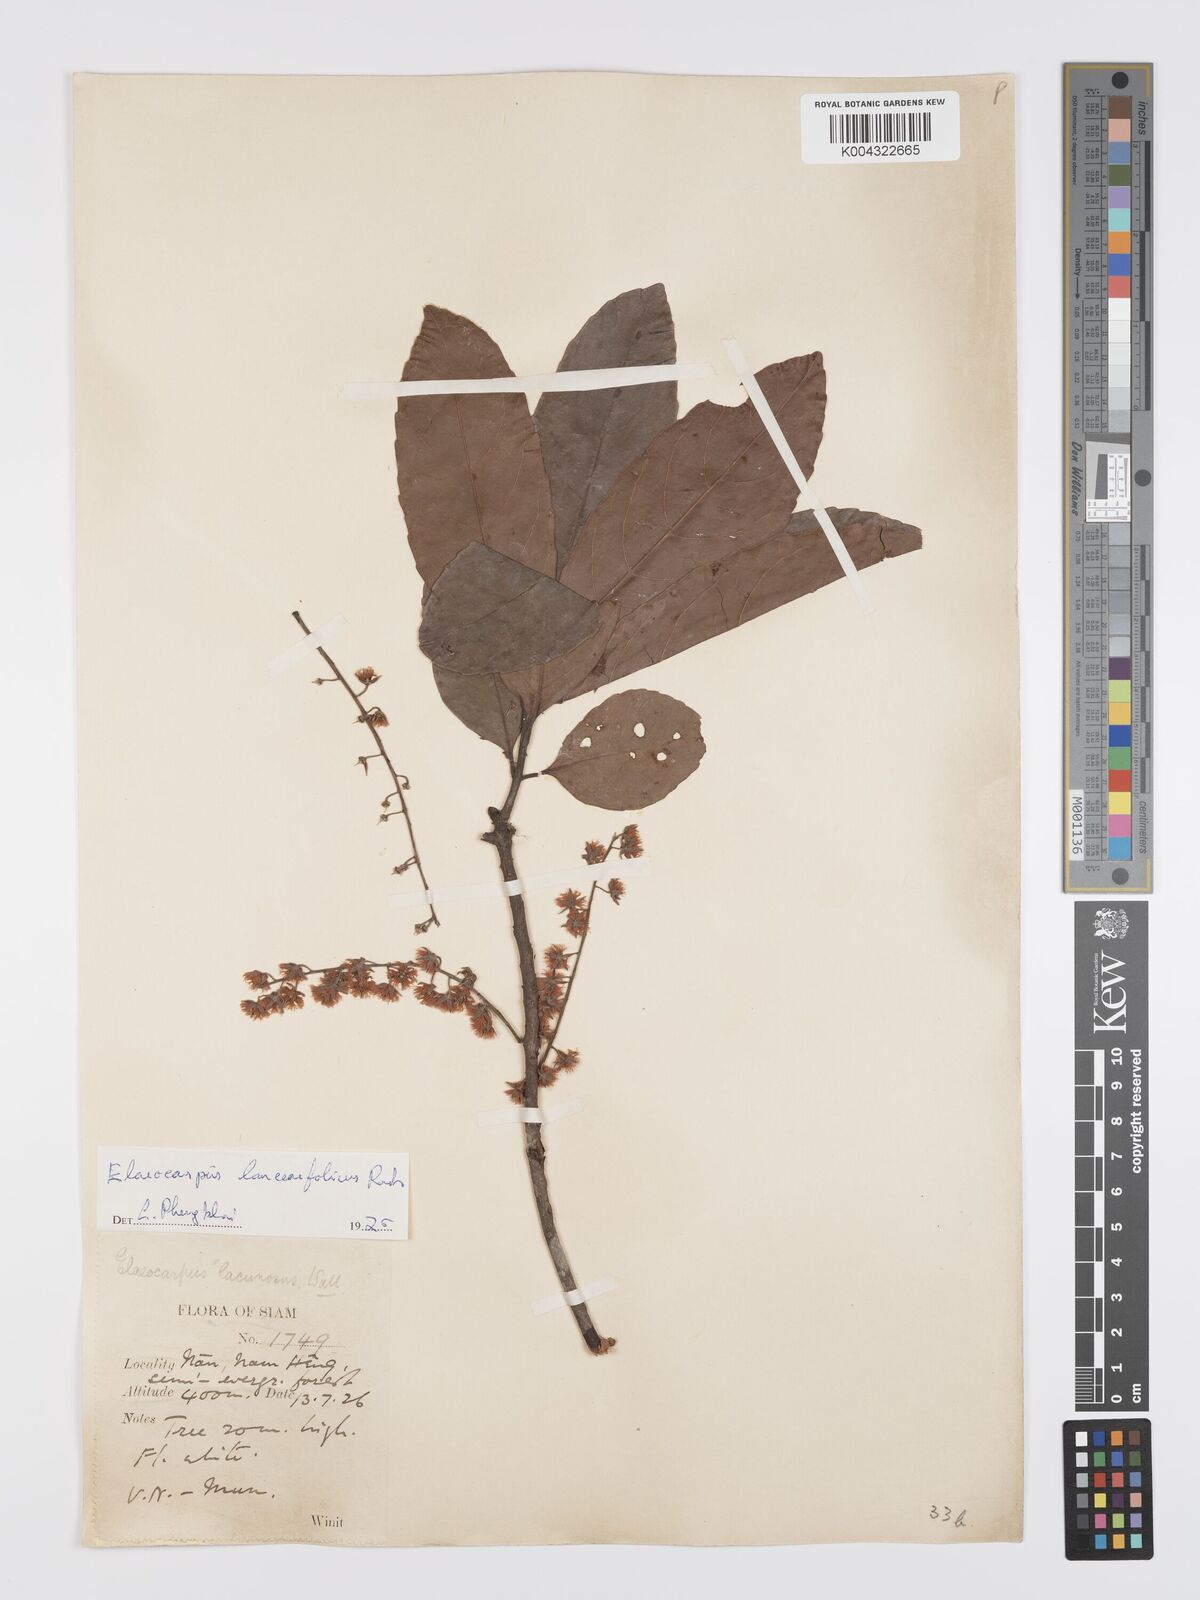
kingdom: Plantae
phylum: Tracheophyta
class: Magnoliopsida
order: Oxalidales
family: Elaeocarpaceae
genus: Elaeocarpus
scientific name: Elaeocarpus lanceifolius
